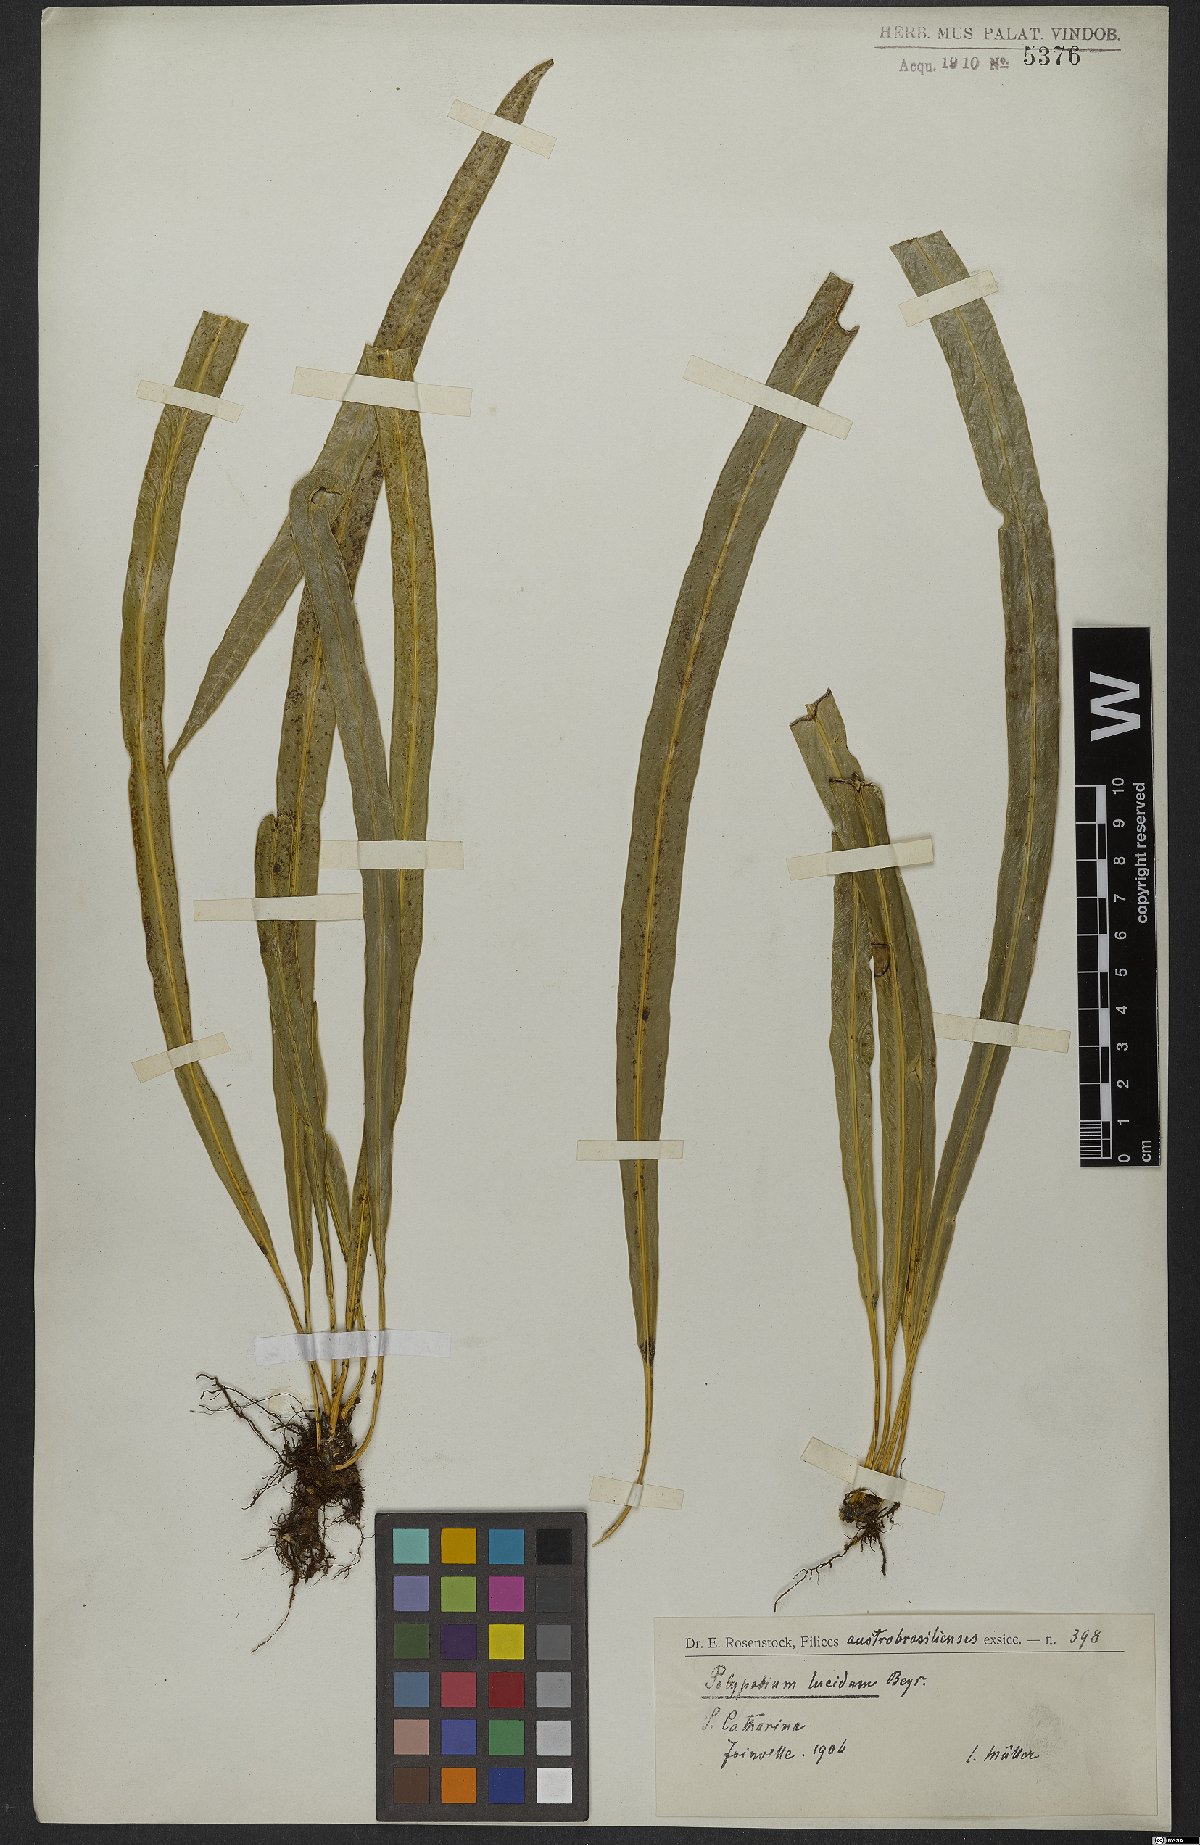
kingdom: Plantae
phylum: Tracheophyta
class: Polypodiopsida
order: Polypodiales
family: Polypodiaceae
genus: Campyloneurum
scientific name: Campyloneurum angustifolium
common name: Narrow-leaf strap fern
